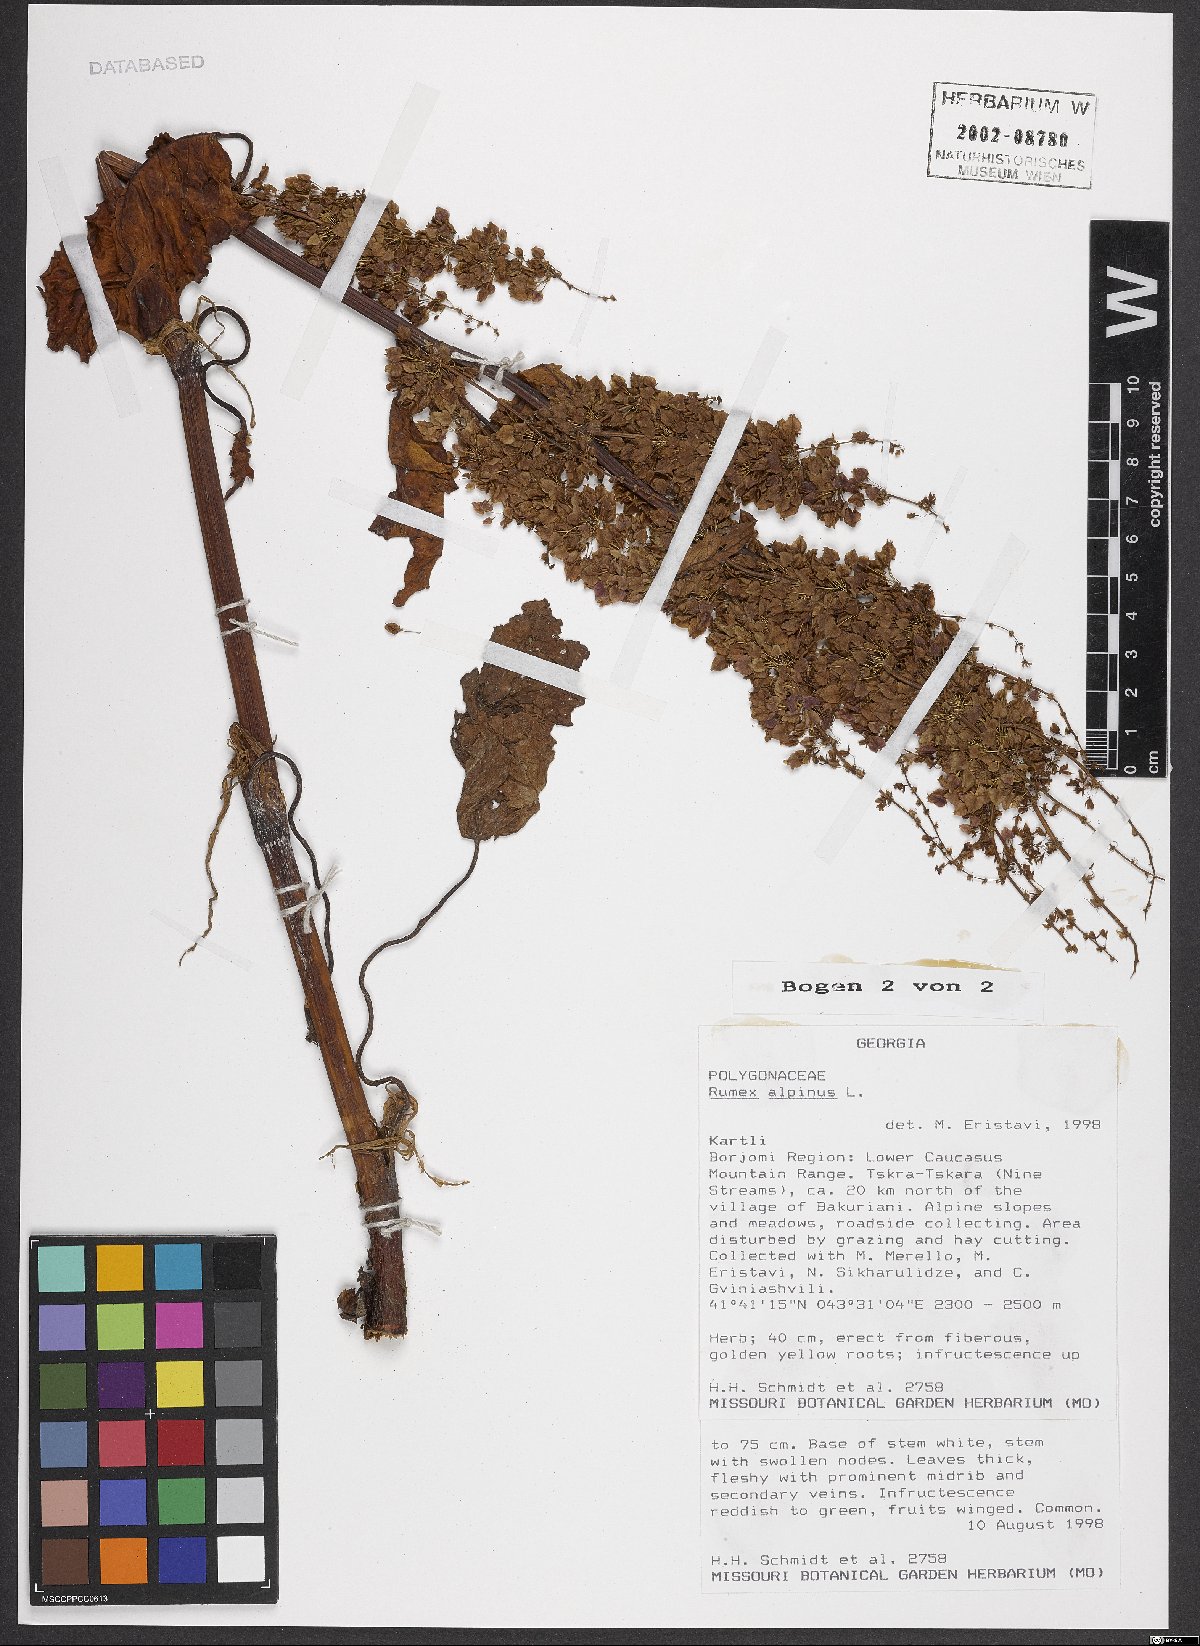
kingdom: Plantae
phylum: Tracheophyta
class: Magnoliopsida
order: Caryophyllales
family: Polygonaceae
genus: Rumex
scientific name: Rumex alpinus
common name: Alpine dock
